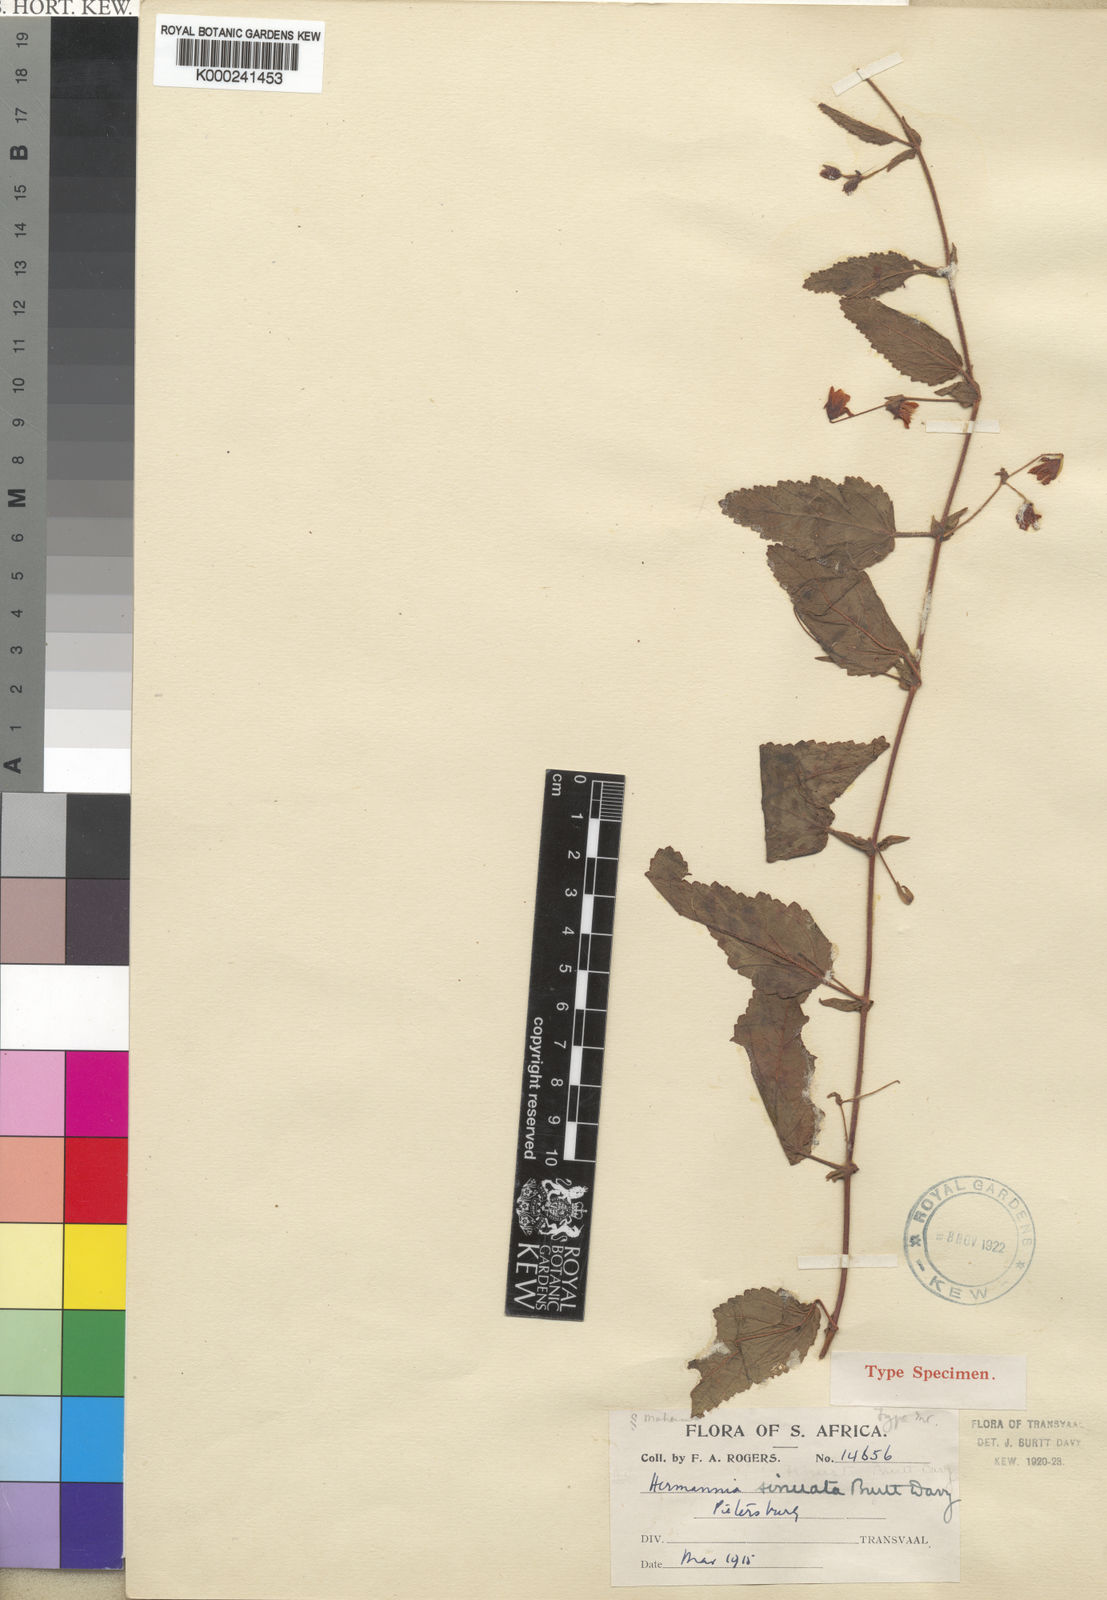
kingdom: Plantae
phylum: Tracheophyta
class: Magnoliopsida
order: Malvales
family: Malvaceae
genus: Hermannia
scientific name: Hermannia stellulata
